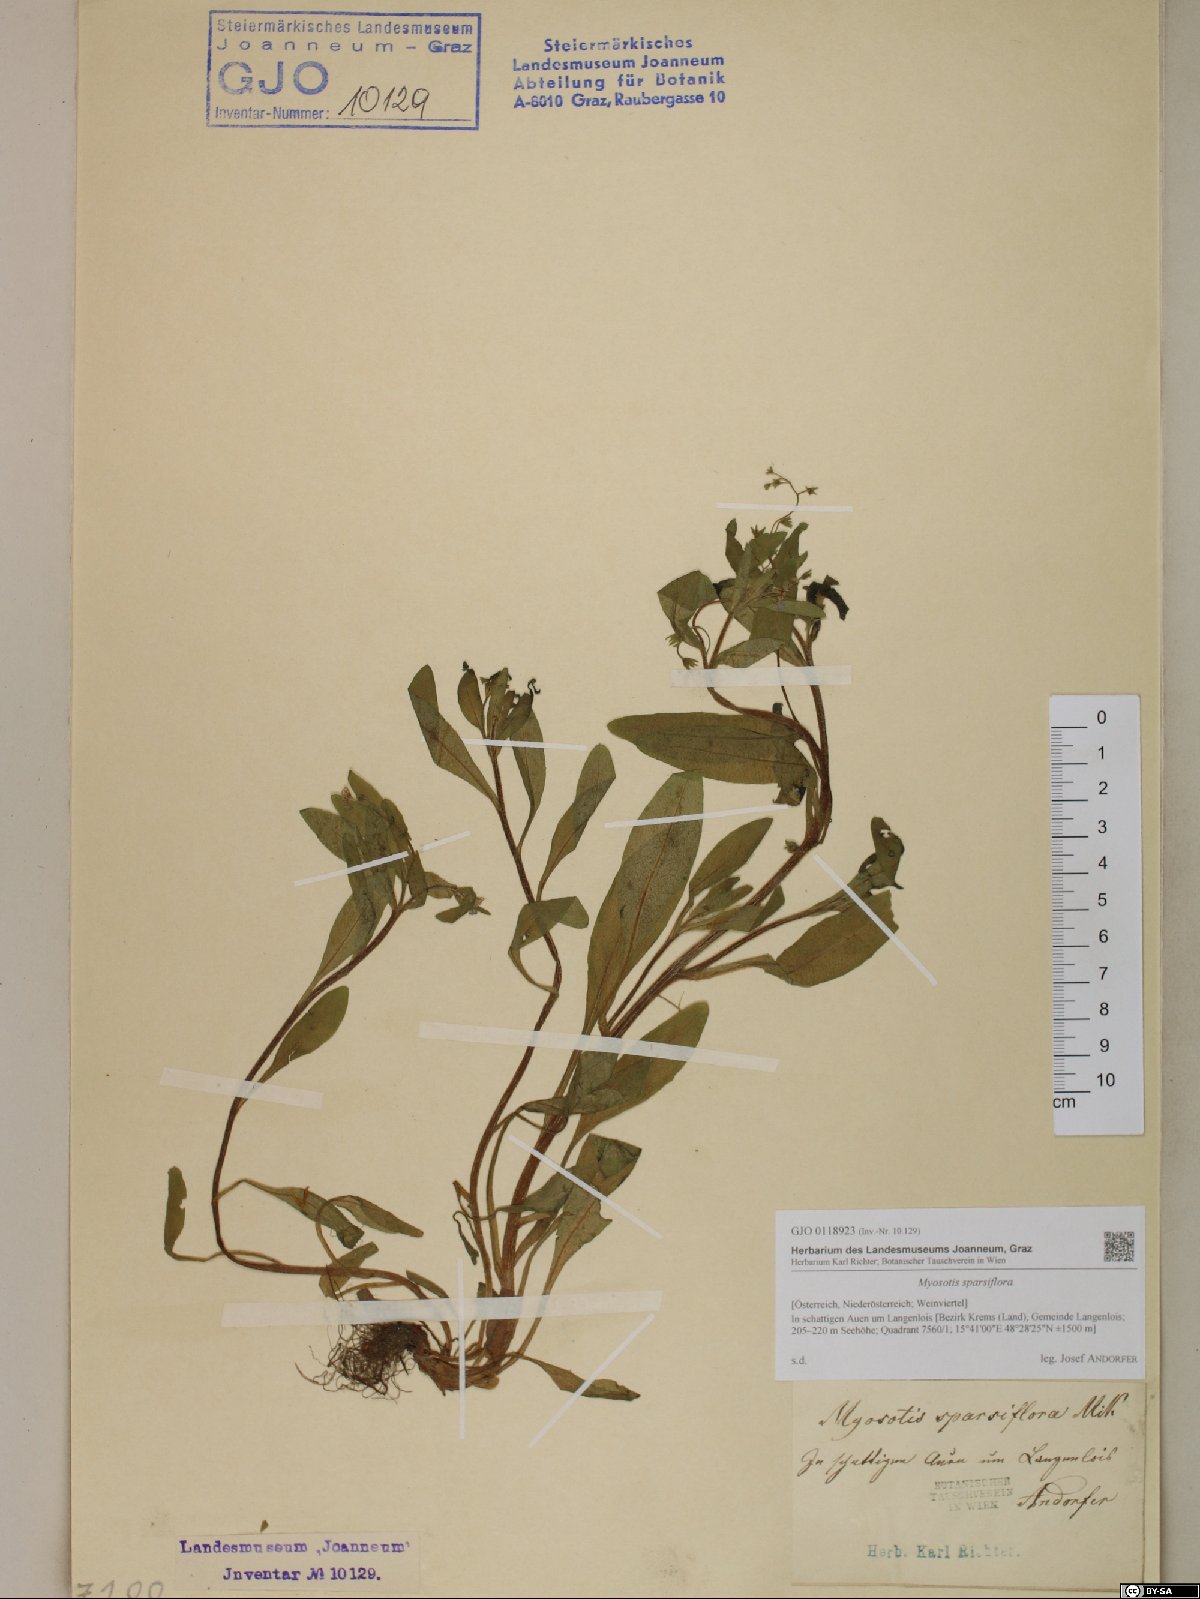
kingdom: Plantae
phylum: Tracheophyta
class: Magnoliopsida
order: Boraginales
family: Boraginaceae
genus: Myosotis
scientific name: Myosotis sparsiflora
